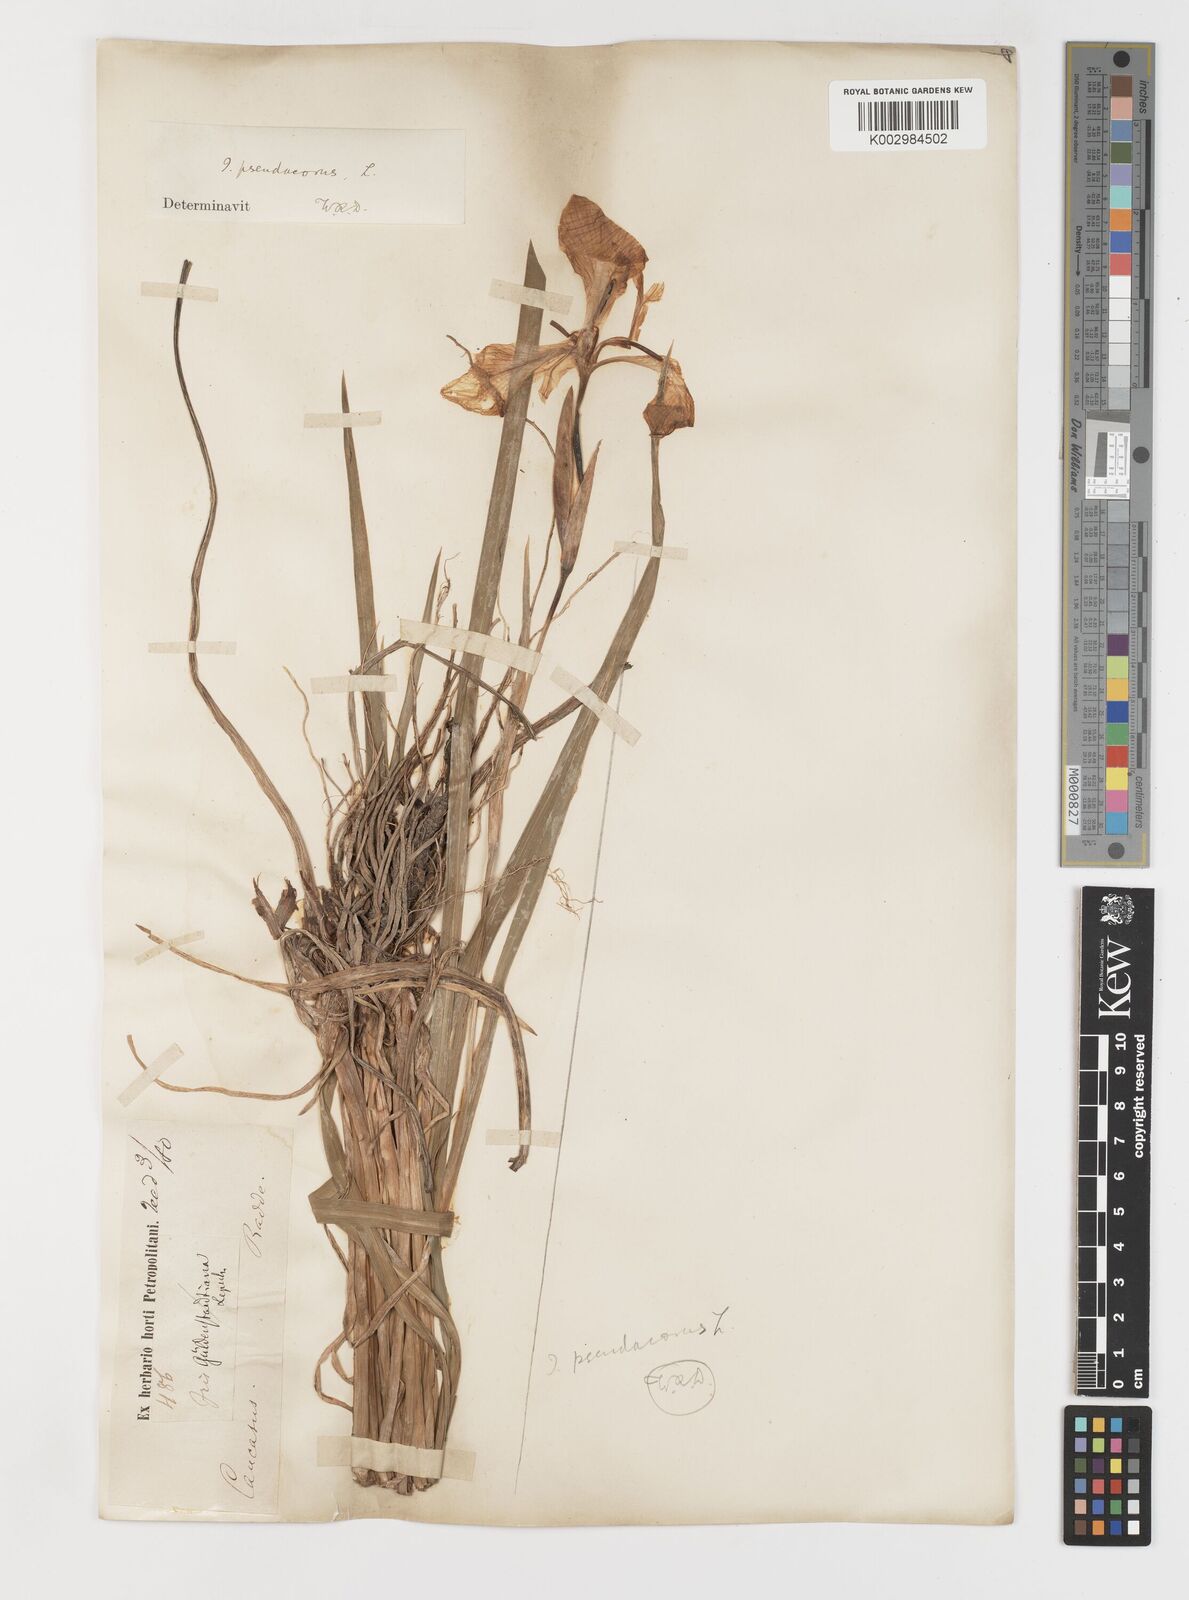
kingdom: Plantae
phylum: Tracheophyta
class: Liliopsida
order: Asparagales
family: Iridaceae
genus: Iris
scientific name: Iris pseudacorus
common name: Yellow flag
